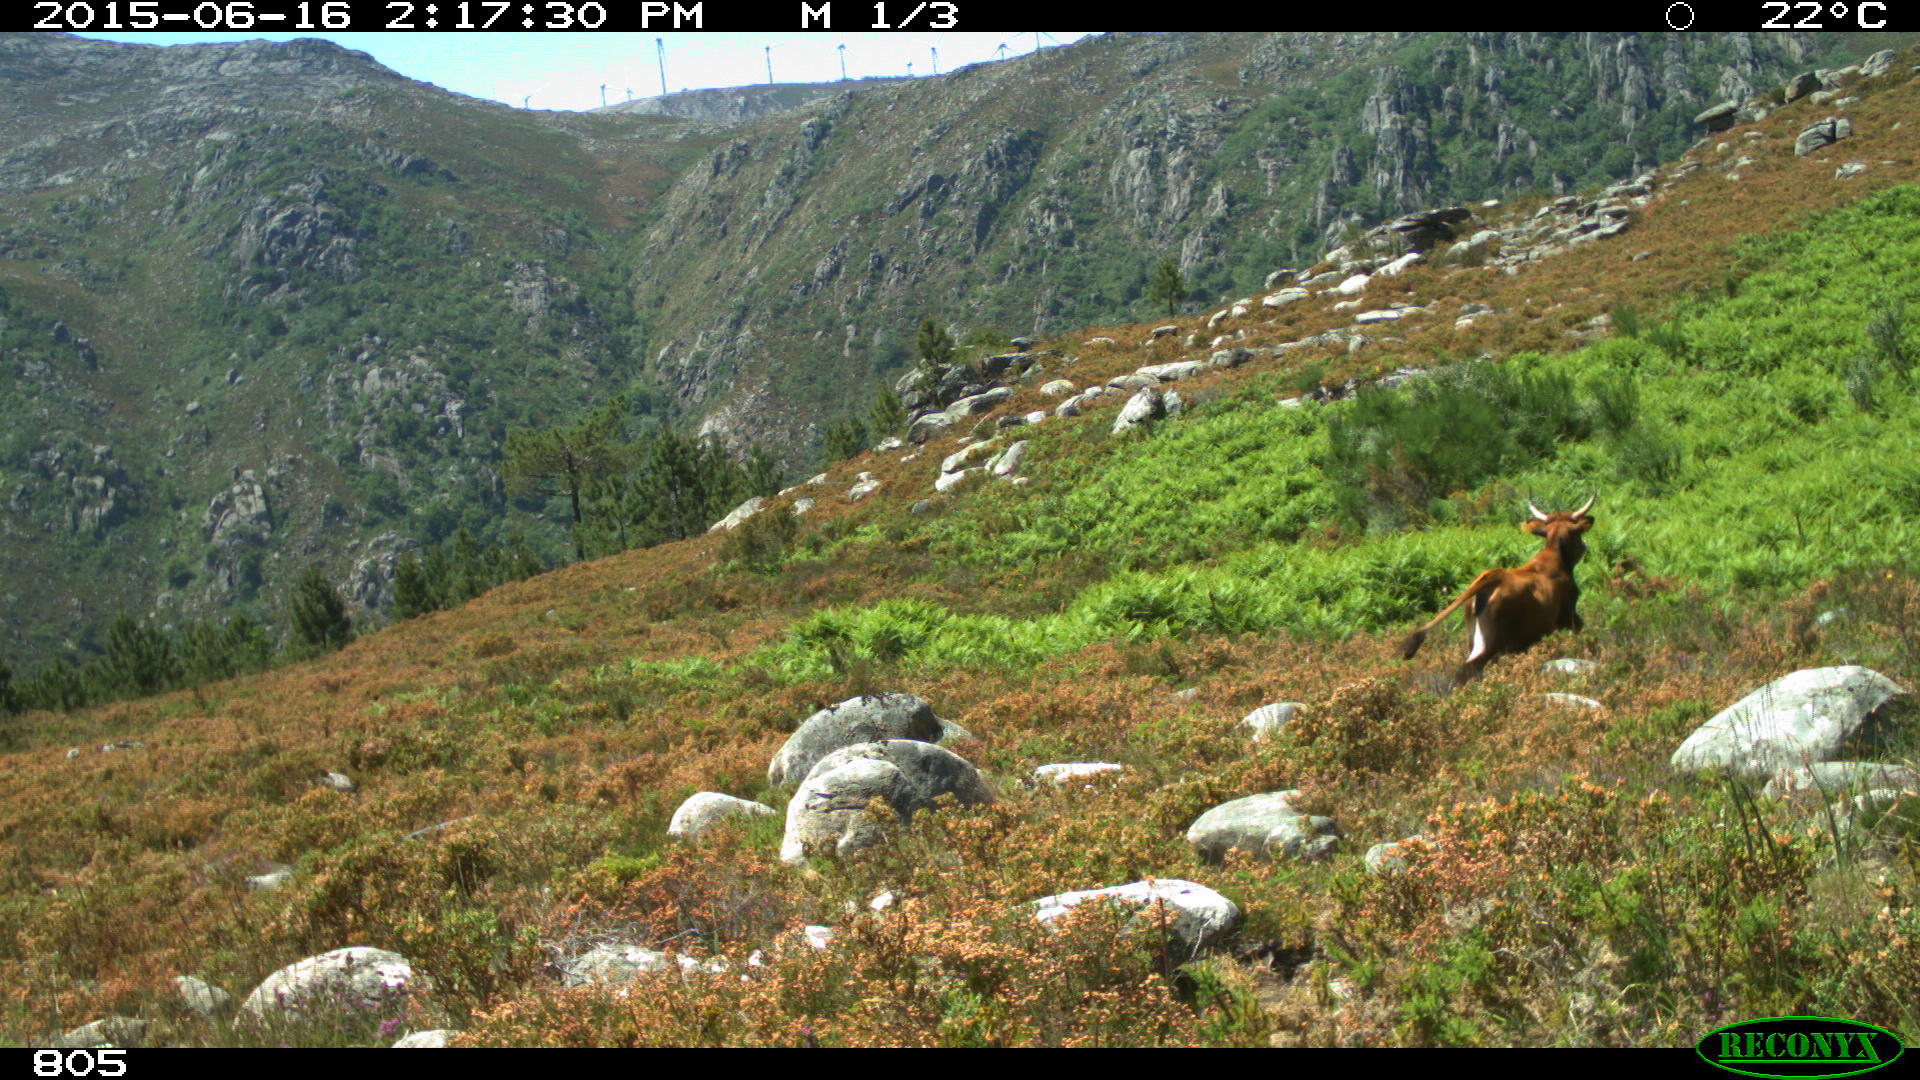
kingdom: Animalia
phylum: Chordata
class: Mammalia
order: Artiodactyla
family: Bovidae
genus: Bos
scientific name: Bos taurus
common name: Domesticated cattle
